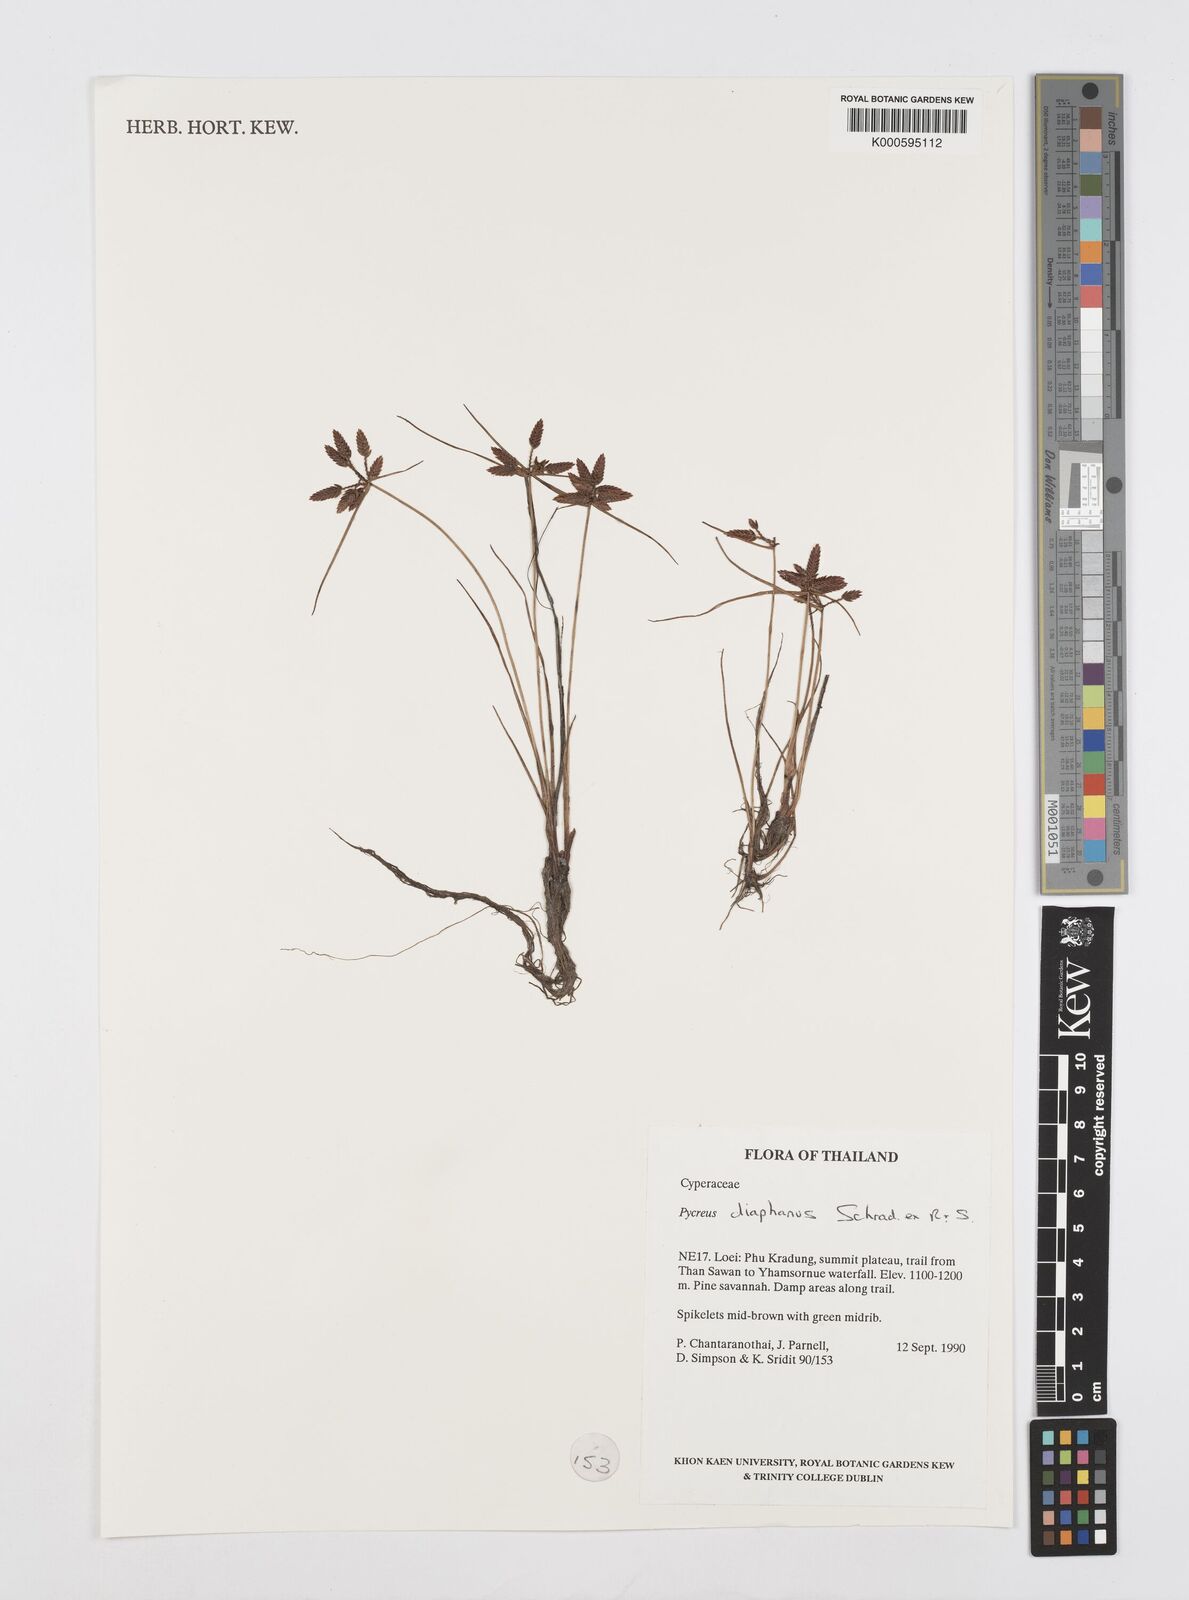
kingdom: Plantae
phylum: Tracheophyta
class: Liliopsida
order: Poales
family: Cyperaceae
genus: Cyperus
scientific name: Cyperus diaphanus
